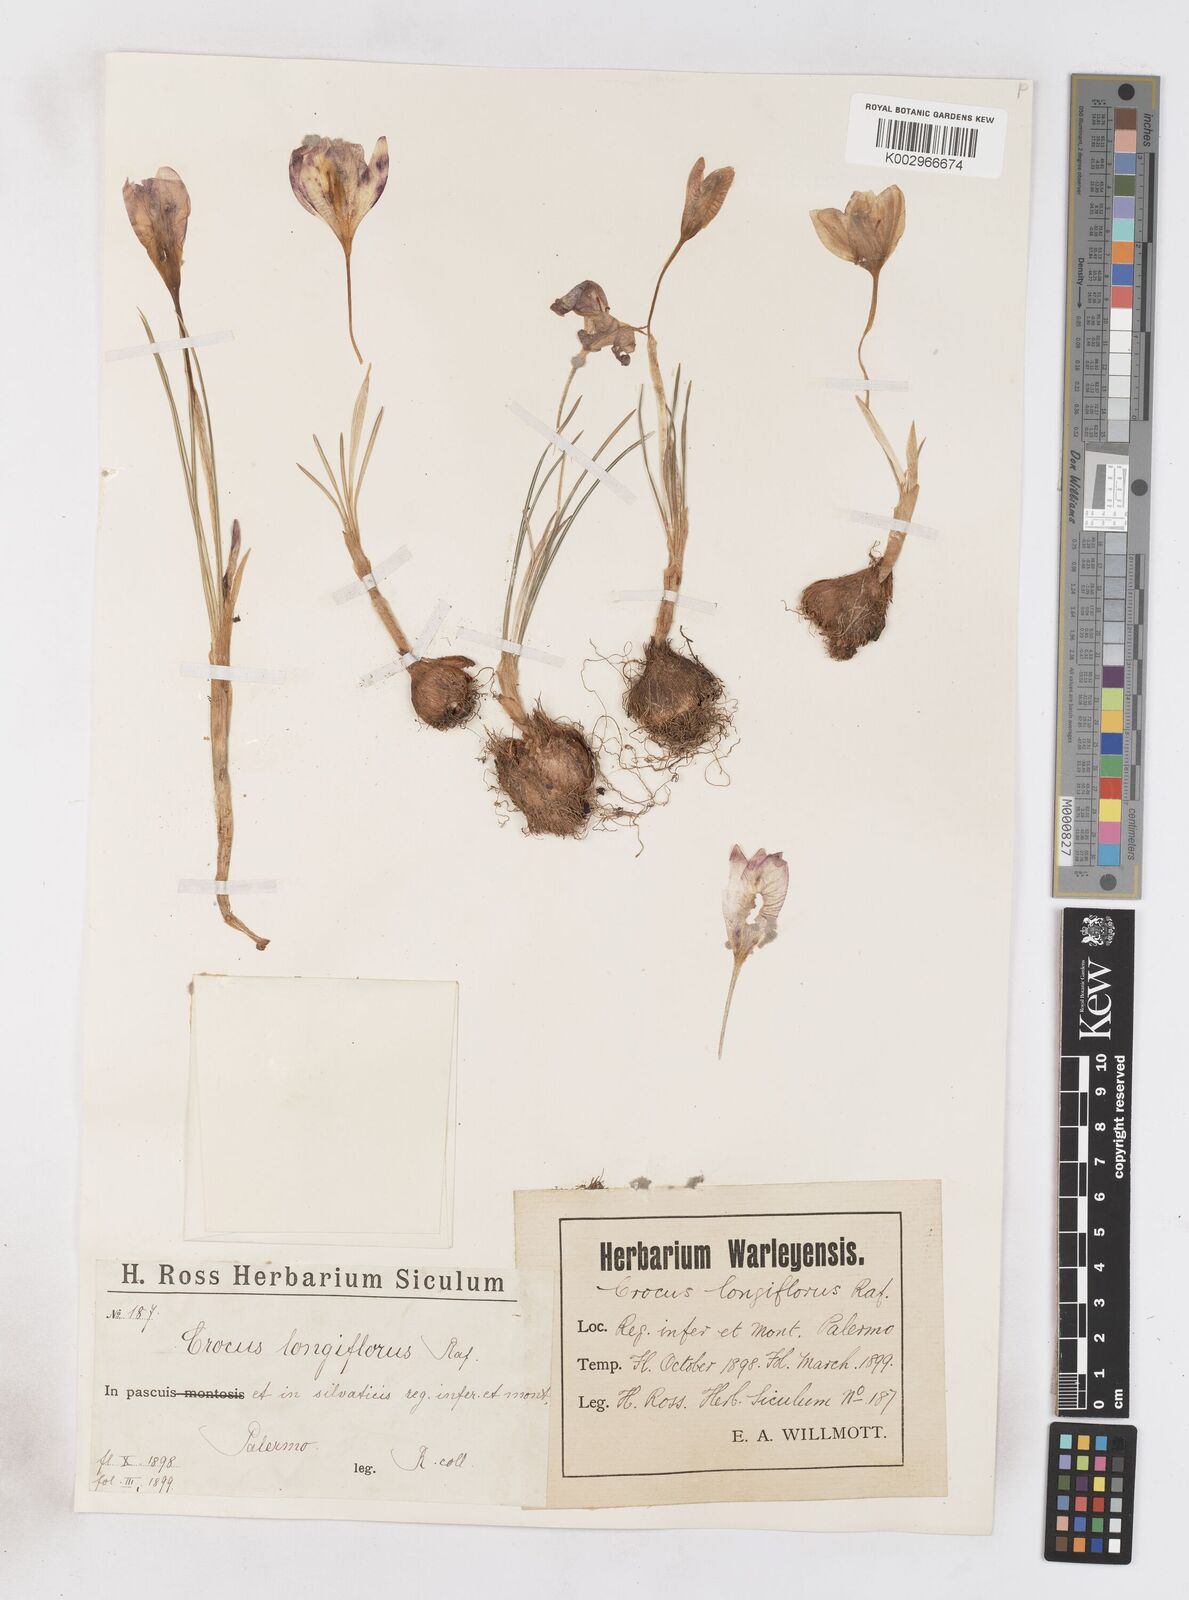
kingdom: Plantae
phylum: Tracheophyta
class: Liliopsida
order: Asparagales
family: Iridaceae
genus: Crocus
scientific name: Crocus longiflorus
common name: Italian crocus
